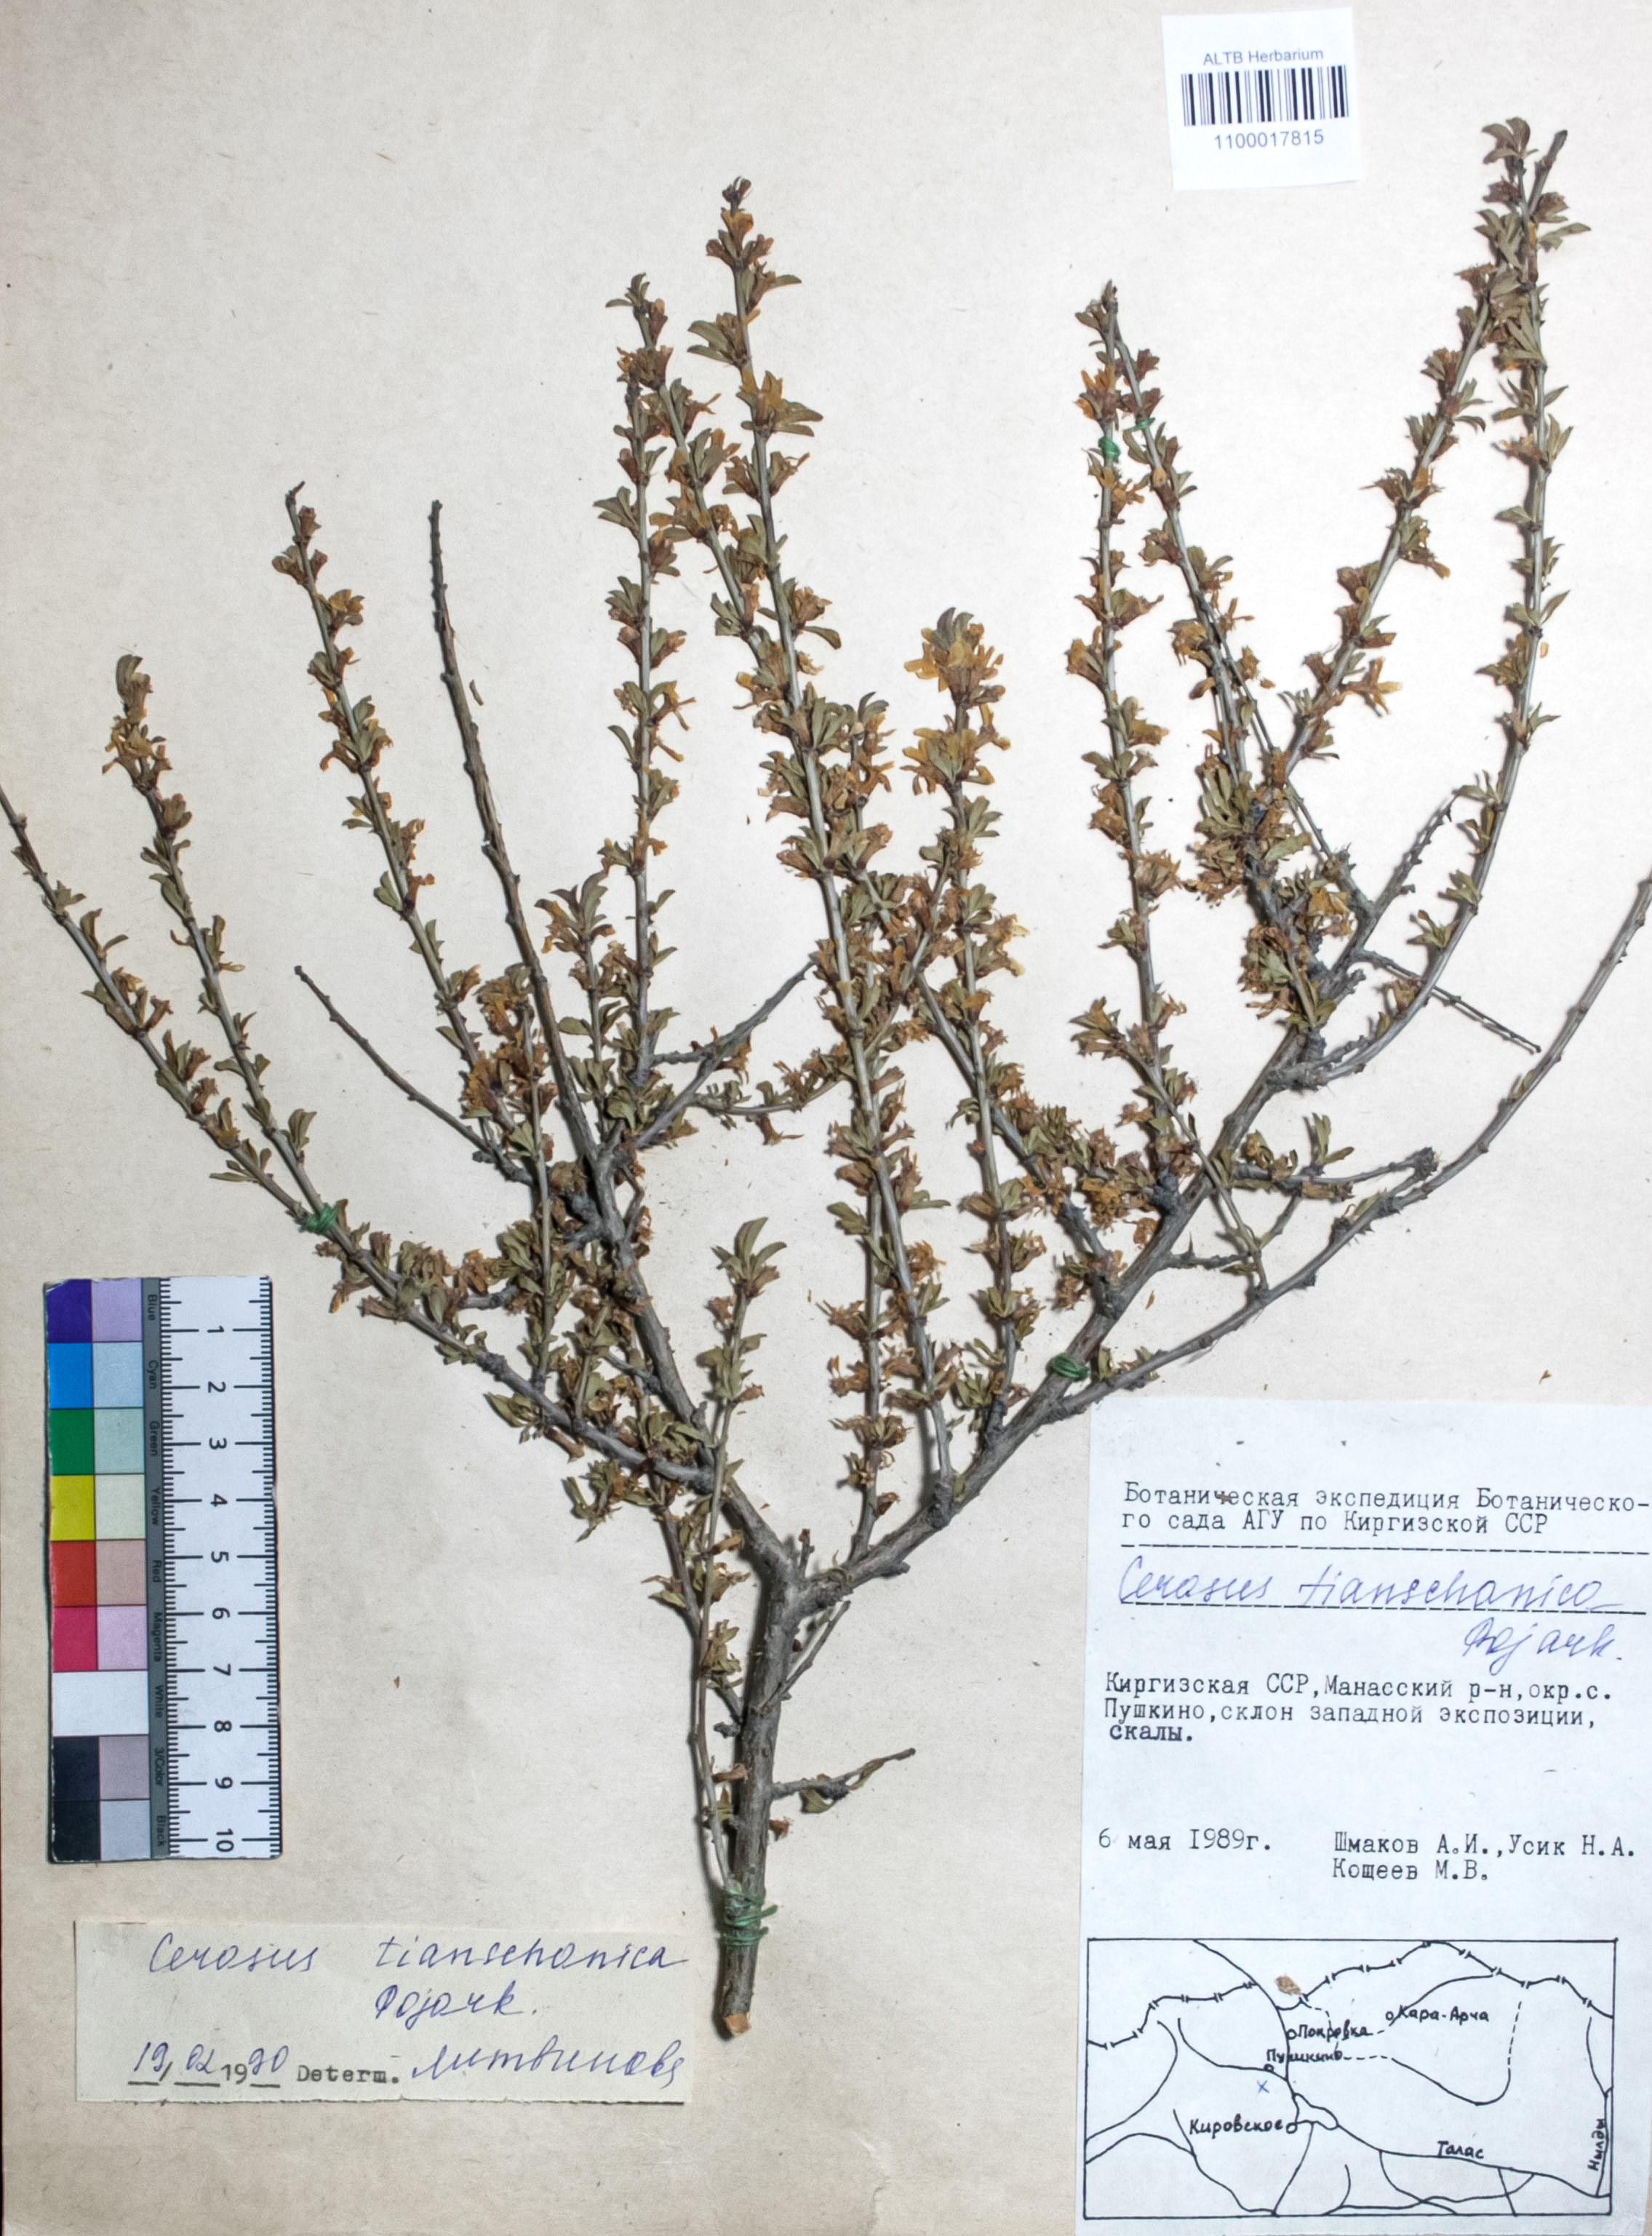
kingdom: Plantae
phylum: Tracheophyta
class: Magnoliopsida
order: Rosales
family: Rosaceae
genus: Prunus
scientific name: Prunus griffithii
